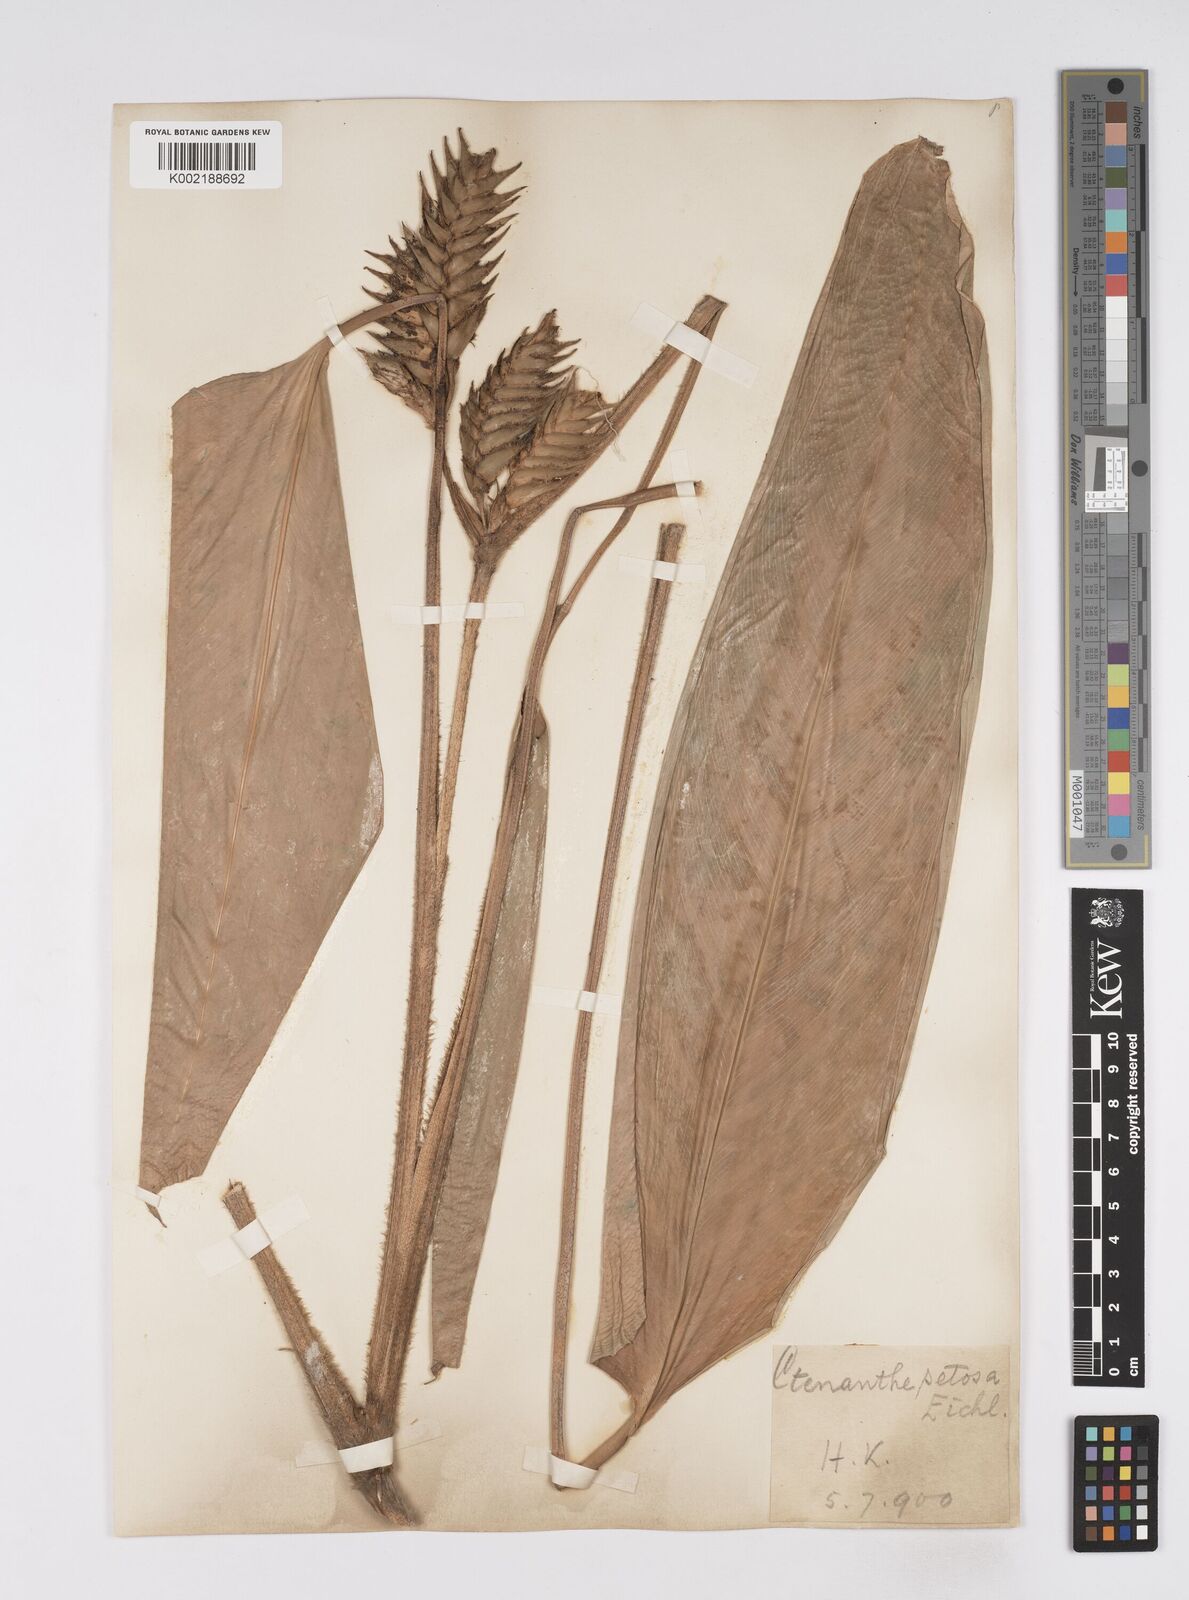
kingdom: Plantae
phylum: Tracheophyta
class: Liliopsida
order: Zingiberales
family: Marantaceae
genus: Ctenanthe
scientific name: Ctenanthe
